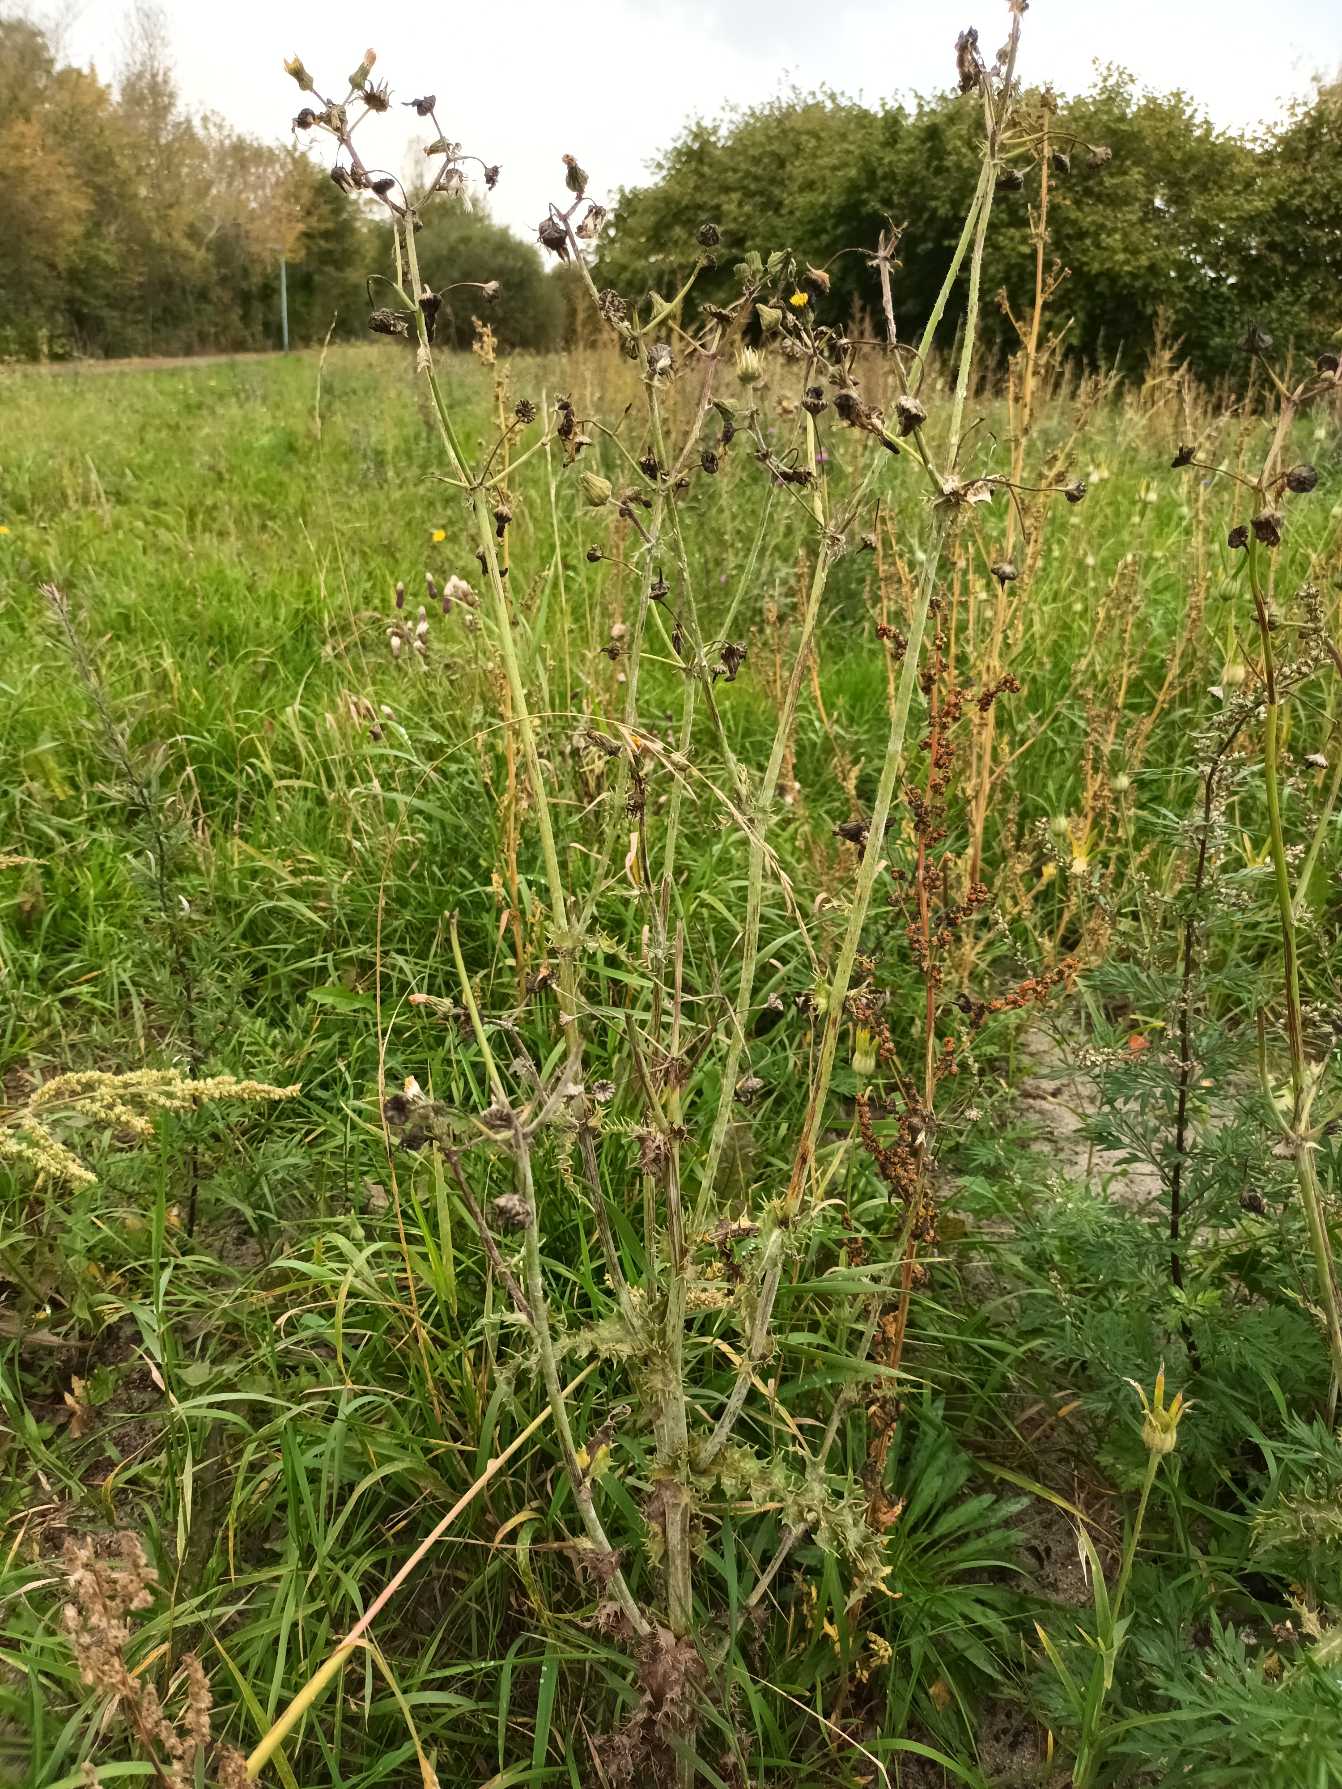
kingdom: Plantae
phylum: Tracheophyta
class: Magnoliopsida
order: Asterales
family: Asteraceae
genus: Sonchus
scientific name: Sonchus asper
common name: Ru svinemælk
